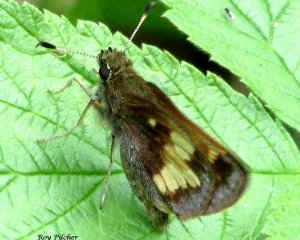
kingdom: Animalia
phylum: Arthropoda
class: Insecta
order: Lepidoptera
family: Hesperiidae
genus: Lon
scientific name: Lon hobomok
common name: Hobomok Skipper
